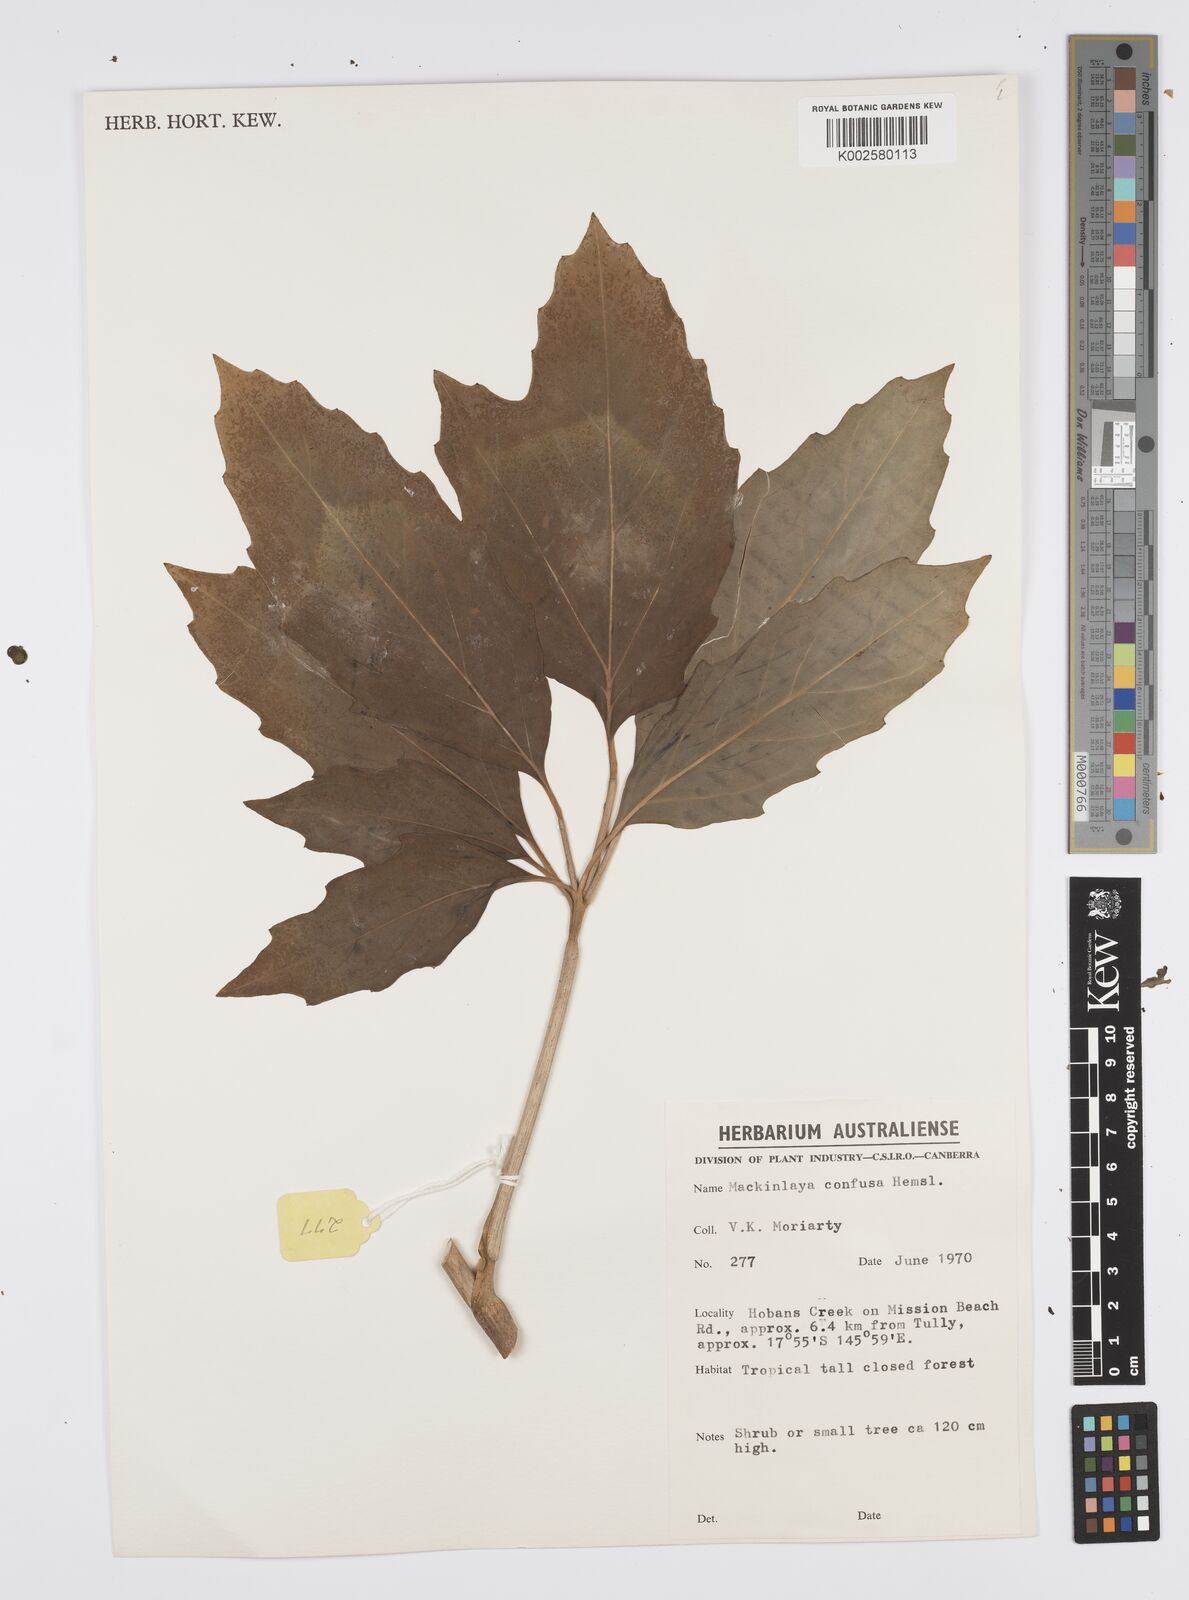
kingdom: Plantae
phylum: Tracheophyta
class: Magnoliopsida
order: Apiales
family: Apiaceae
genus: Mackinlaya
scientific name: Mackinlaya confusa
